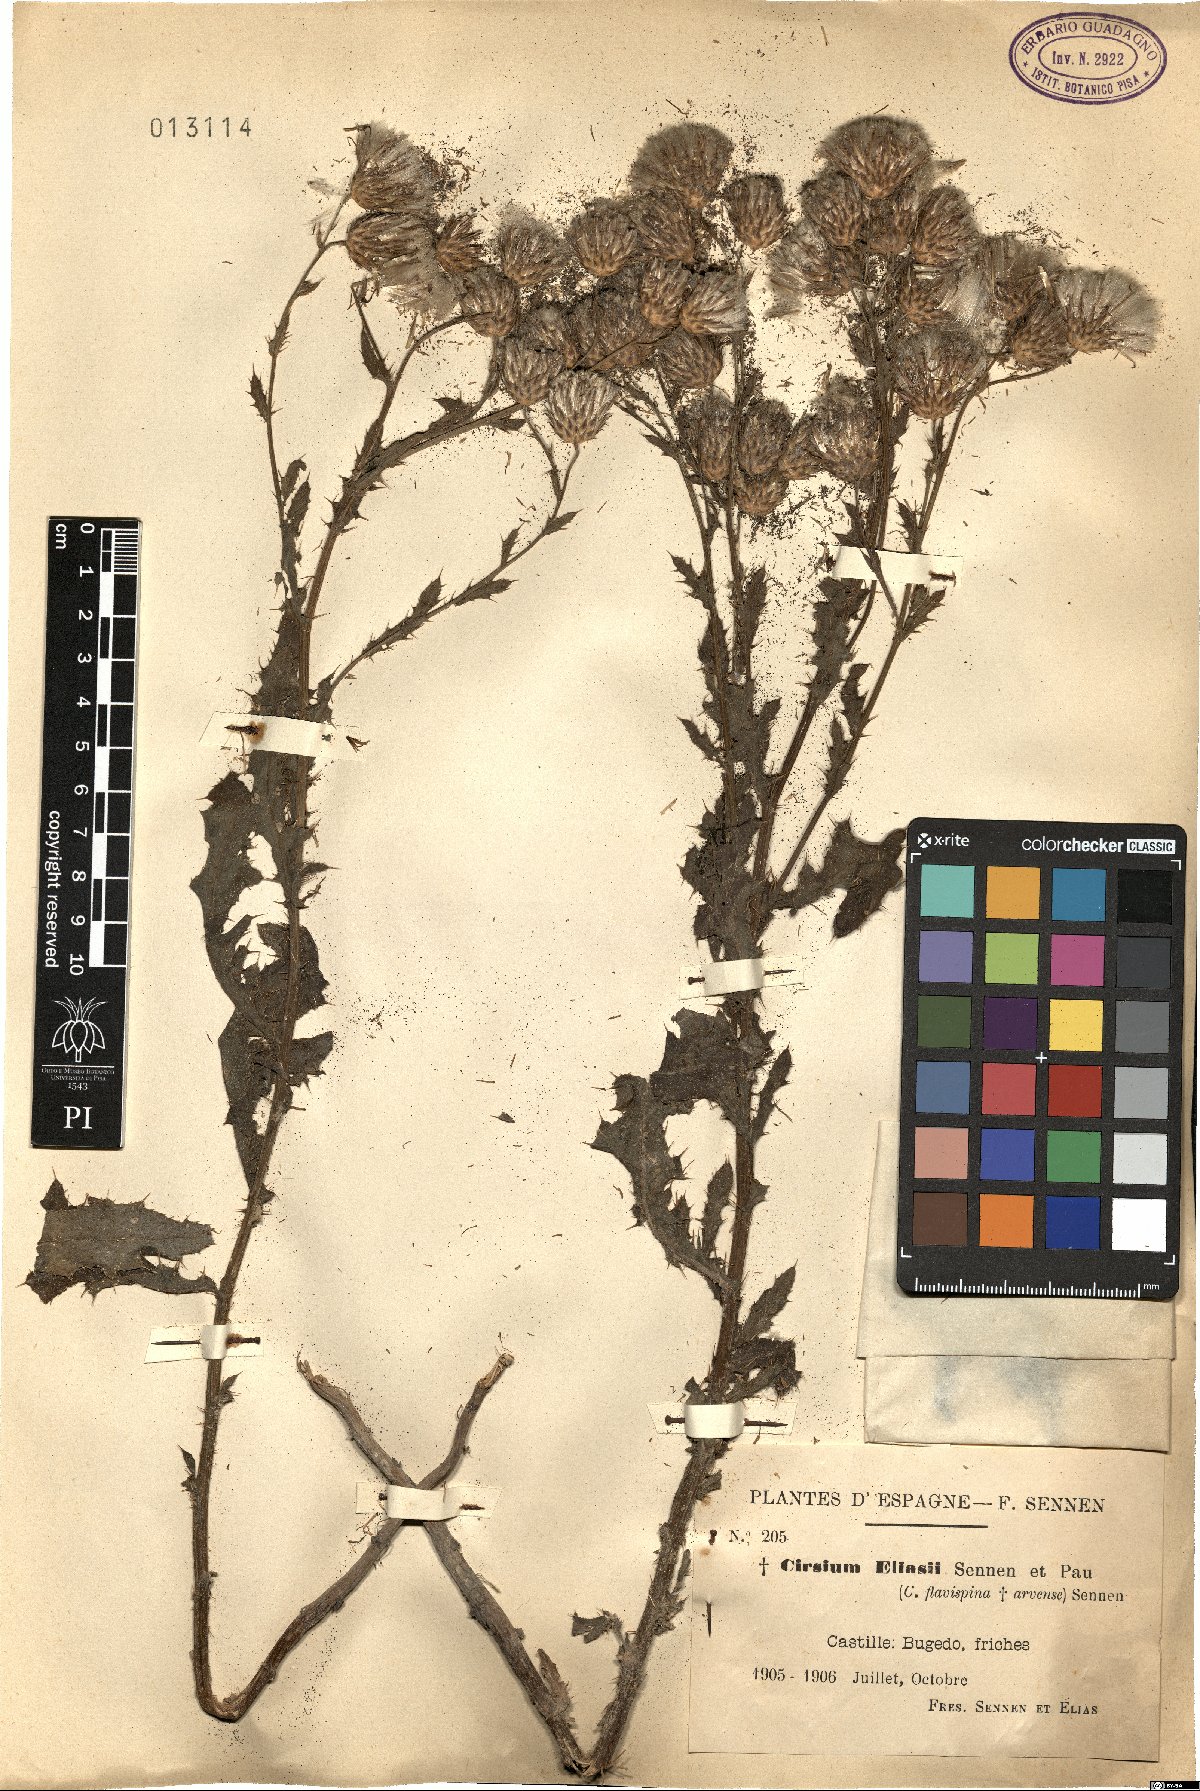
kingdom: Plantae
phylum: Tracheophyta
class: Magnoliopsida
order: Asterales
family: Asteraceae
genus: Cirsium
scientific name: Cirsium eliasii
